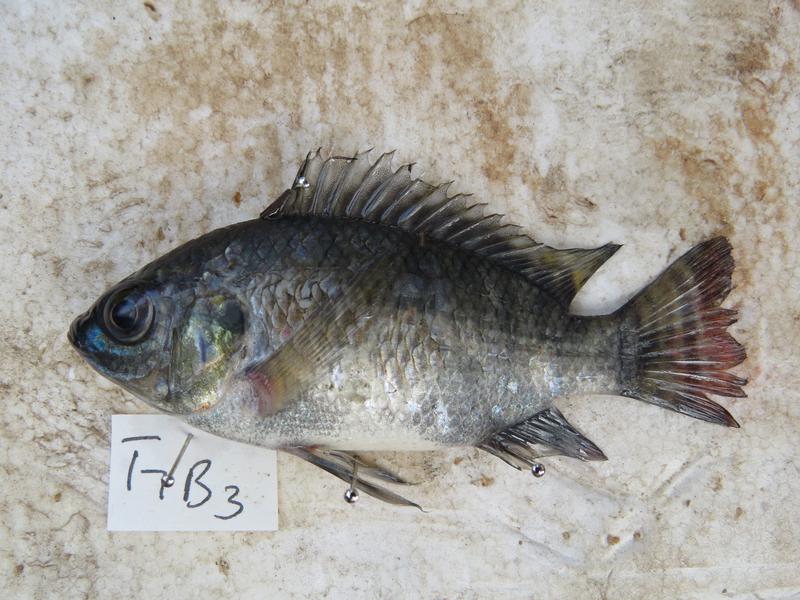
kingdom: Animalia
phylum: Chordata
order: Perciformes
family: Cichlidae
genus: Oreochromis
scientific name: Oreochromis niloticus
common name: Nile tilapia
